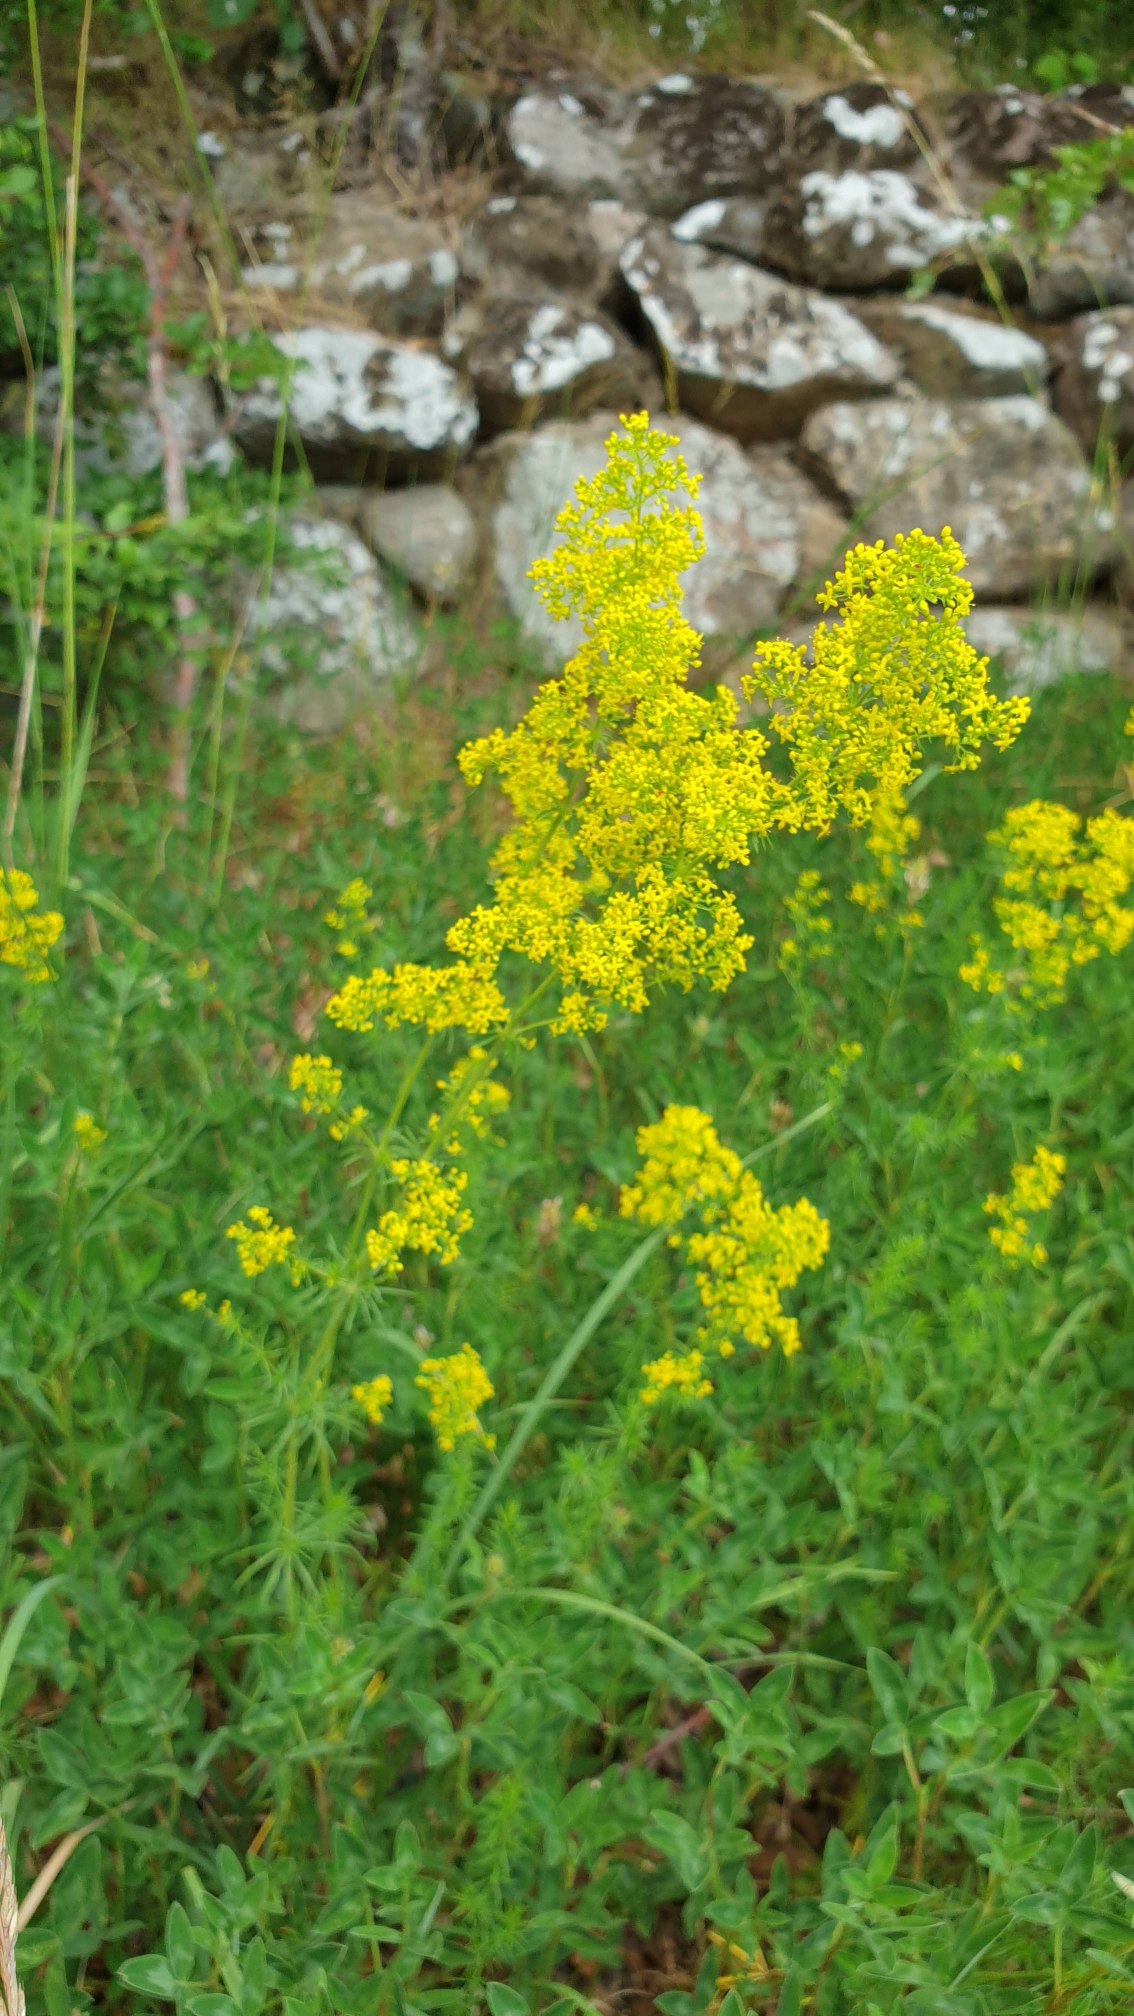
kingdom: Plantae
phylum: Tracheophyta
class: Magnoliopsida
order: Gentianales
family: Rubiaceae
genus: Galium
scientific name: Galium verum
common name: Gul snerre
